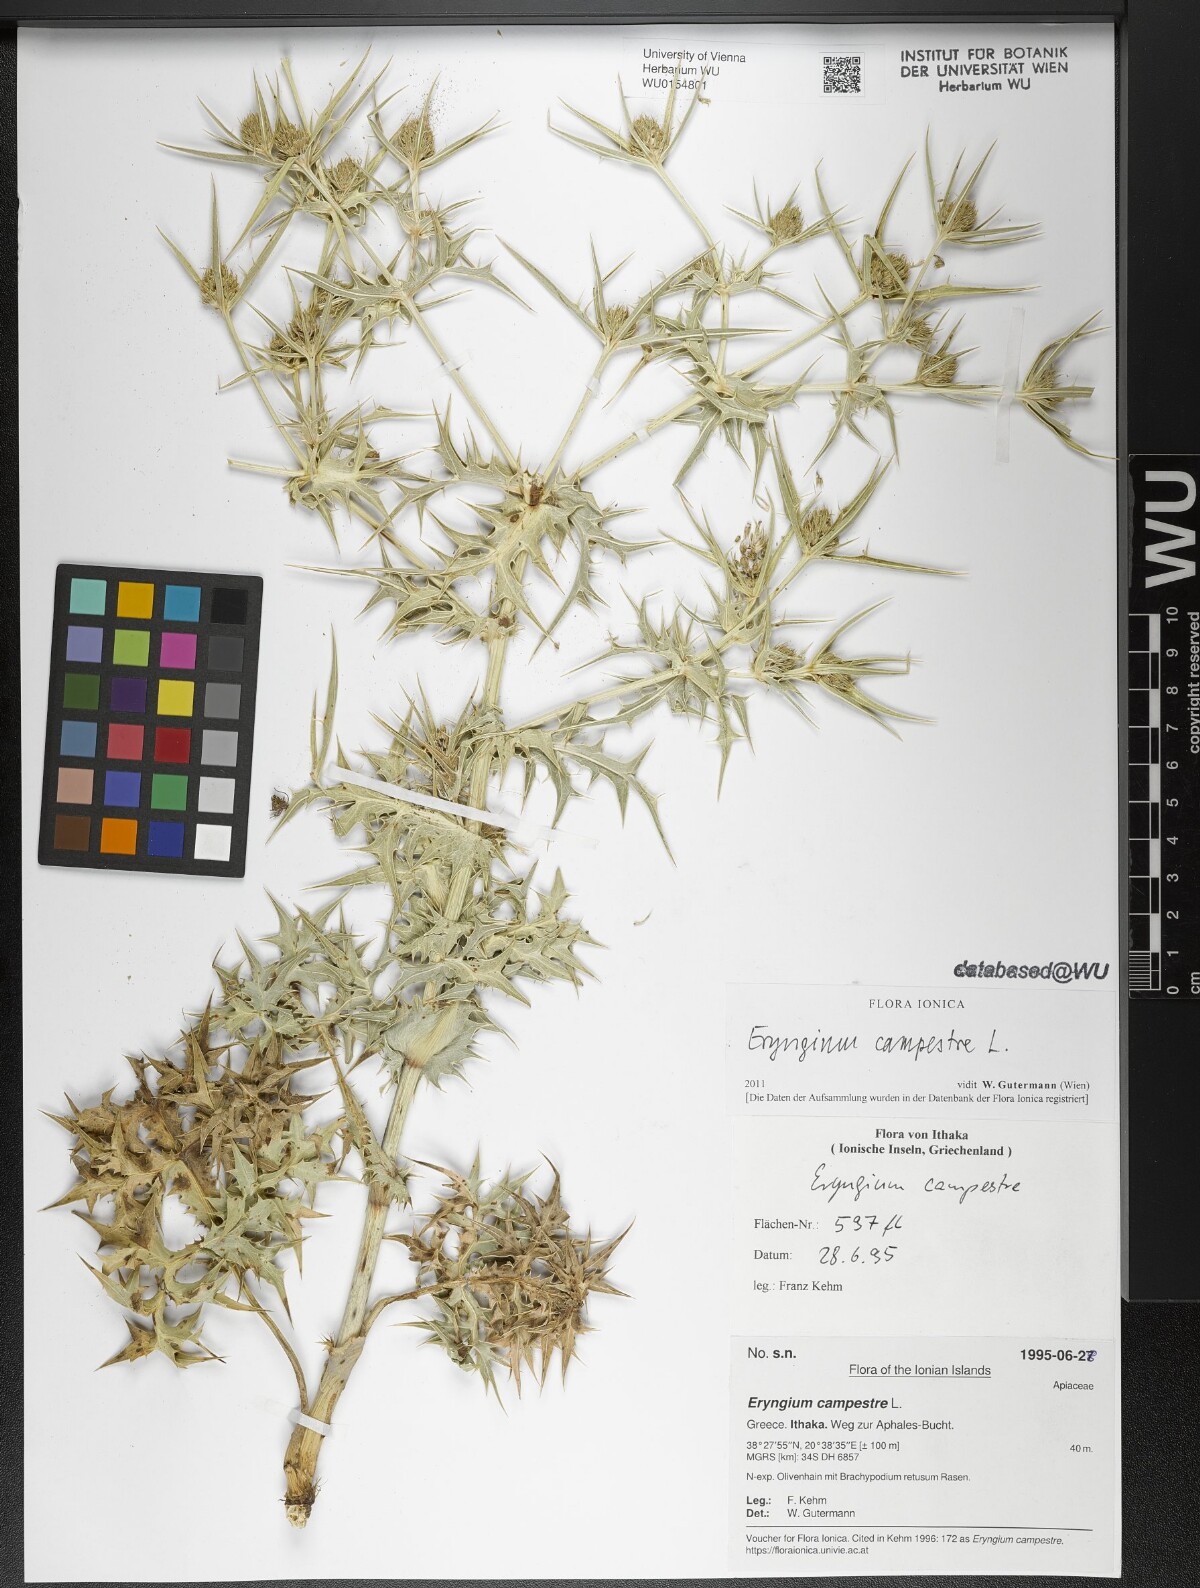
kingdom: Plantae
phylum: Tracheophyta
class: Magnoliopsida
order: Apiales
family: Apiaceae
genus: Eryngium
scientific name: Eryngium campestre
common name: Field eryngo
